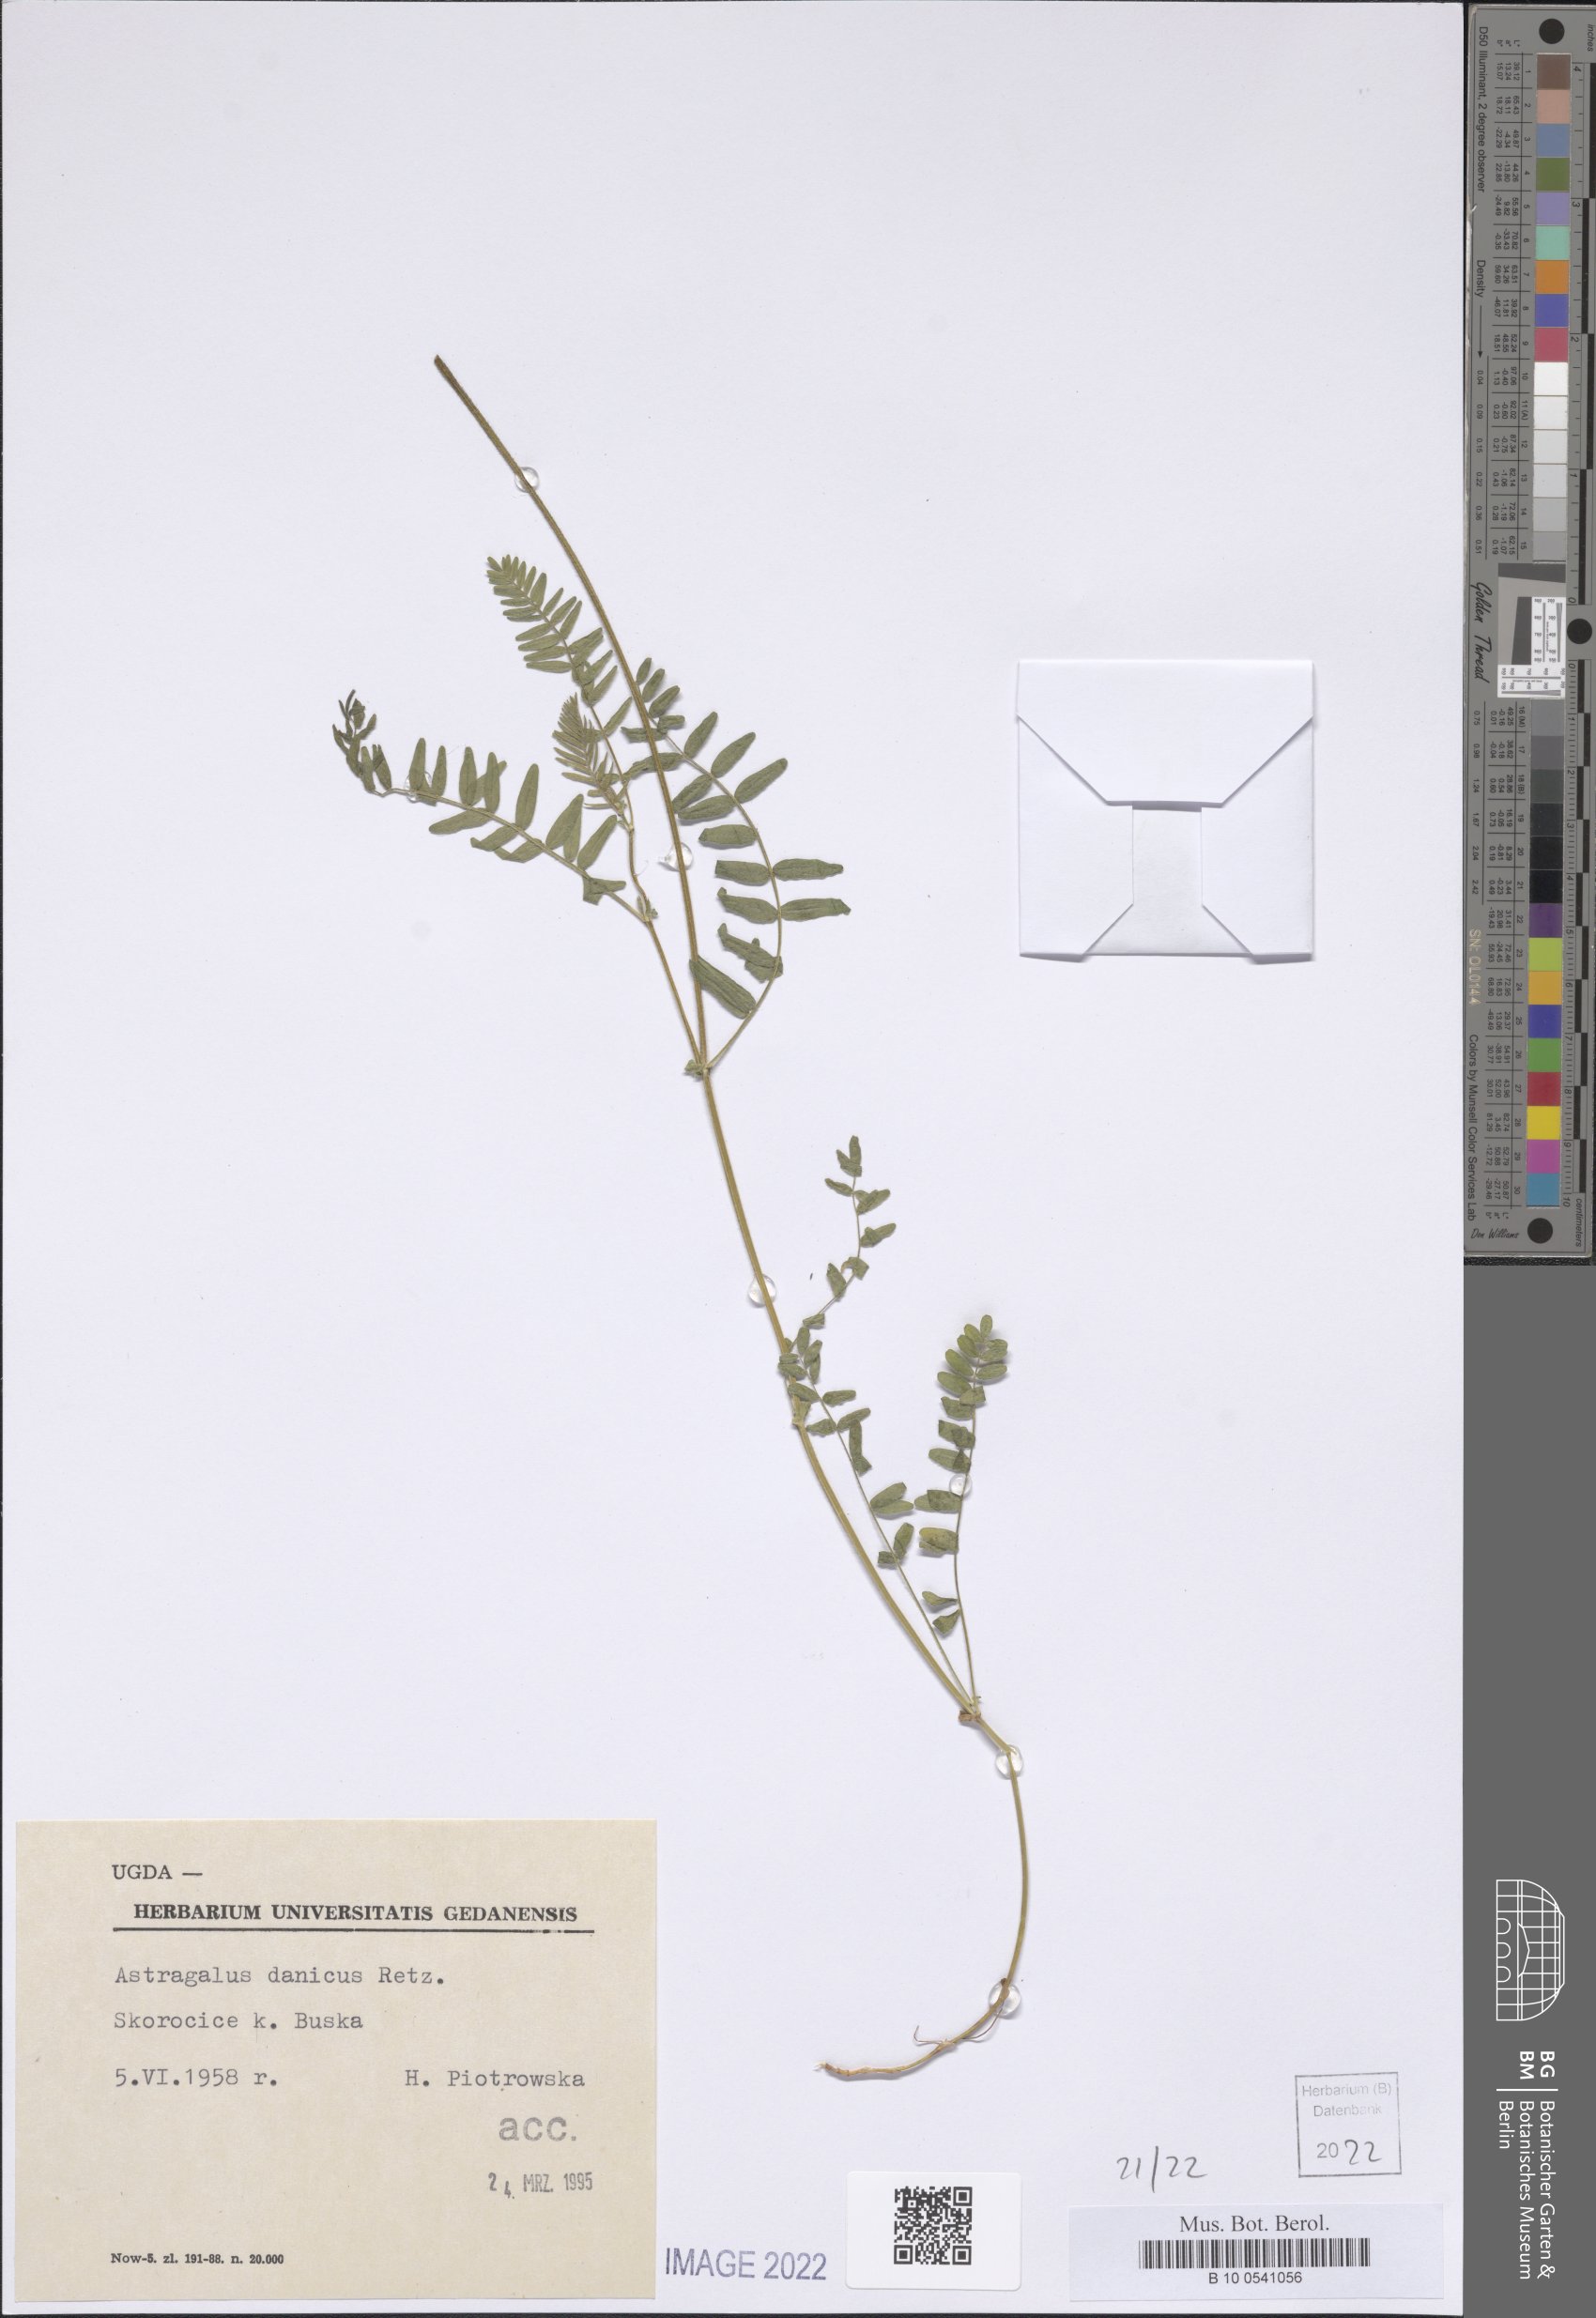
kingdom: Plantae
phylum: Tracheophyta
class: Magnoliopsida
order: Fabales
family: Fabaceae
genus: Astragalus
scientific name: Astragalus danicus
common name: Purple milk-vetch
